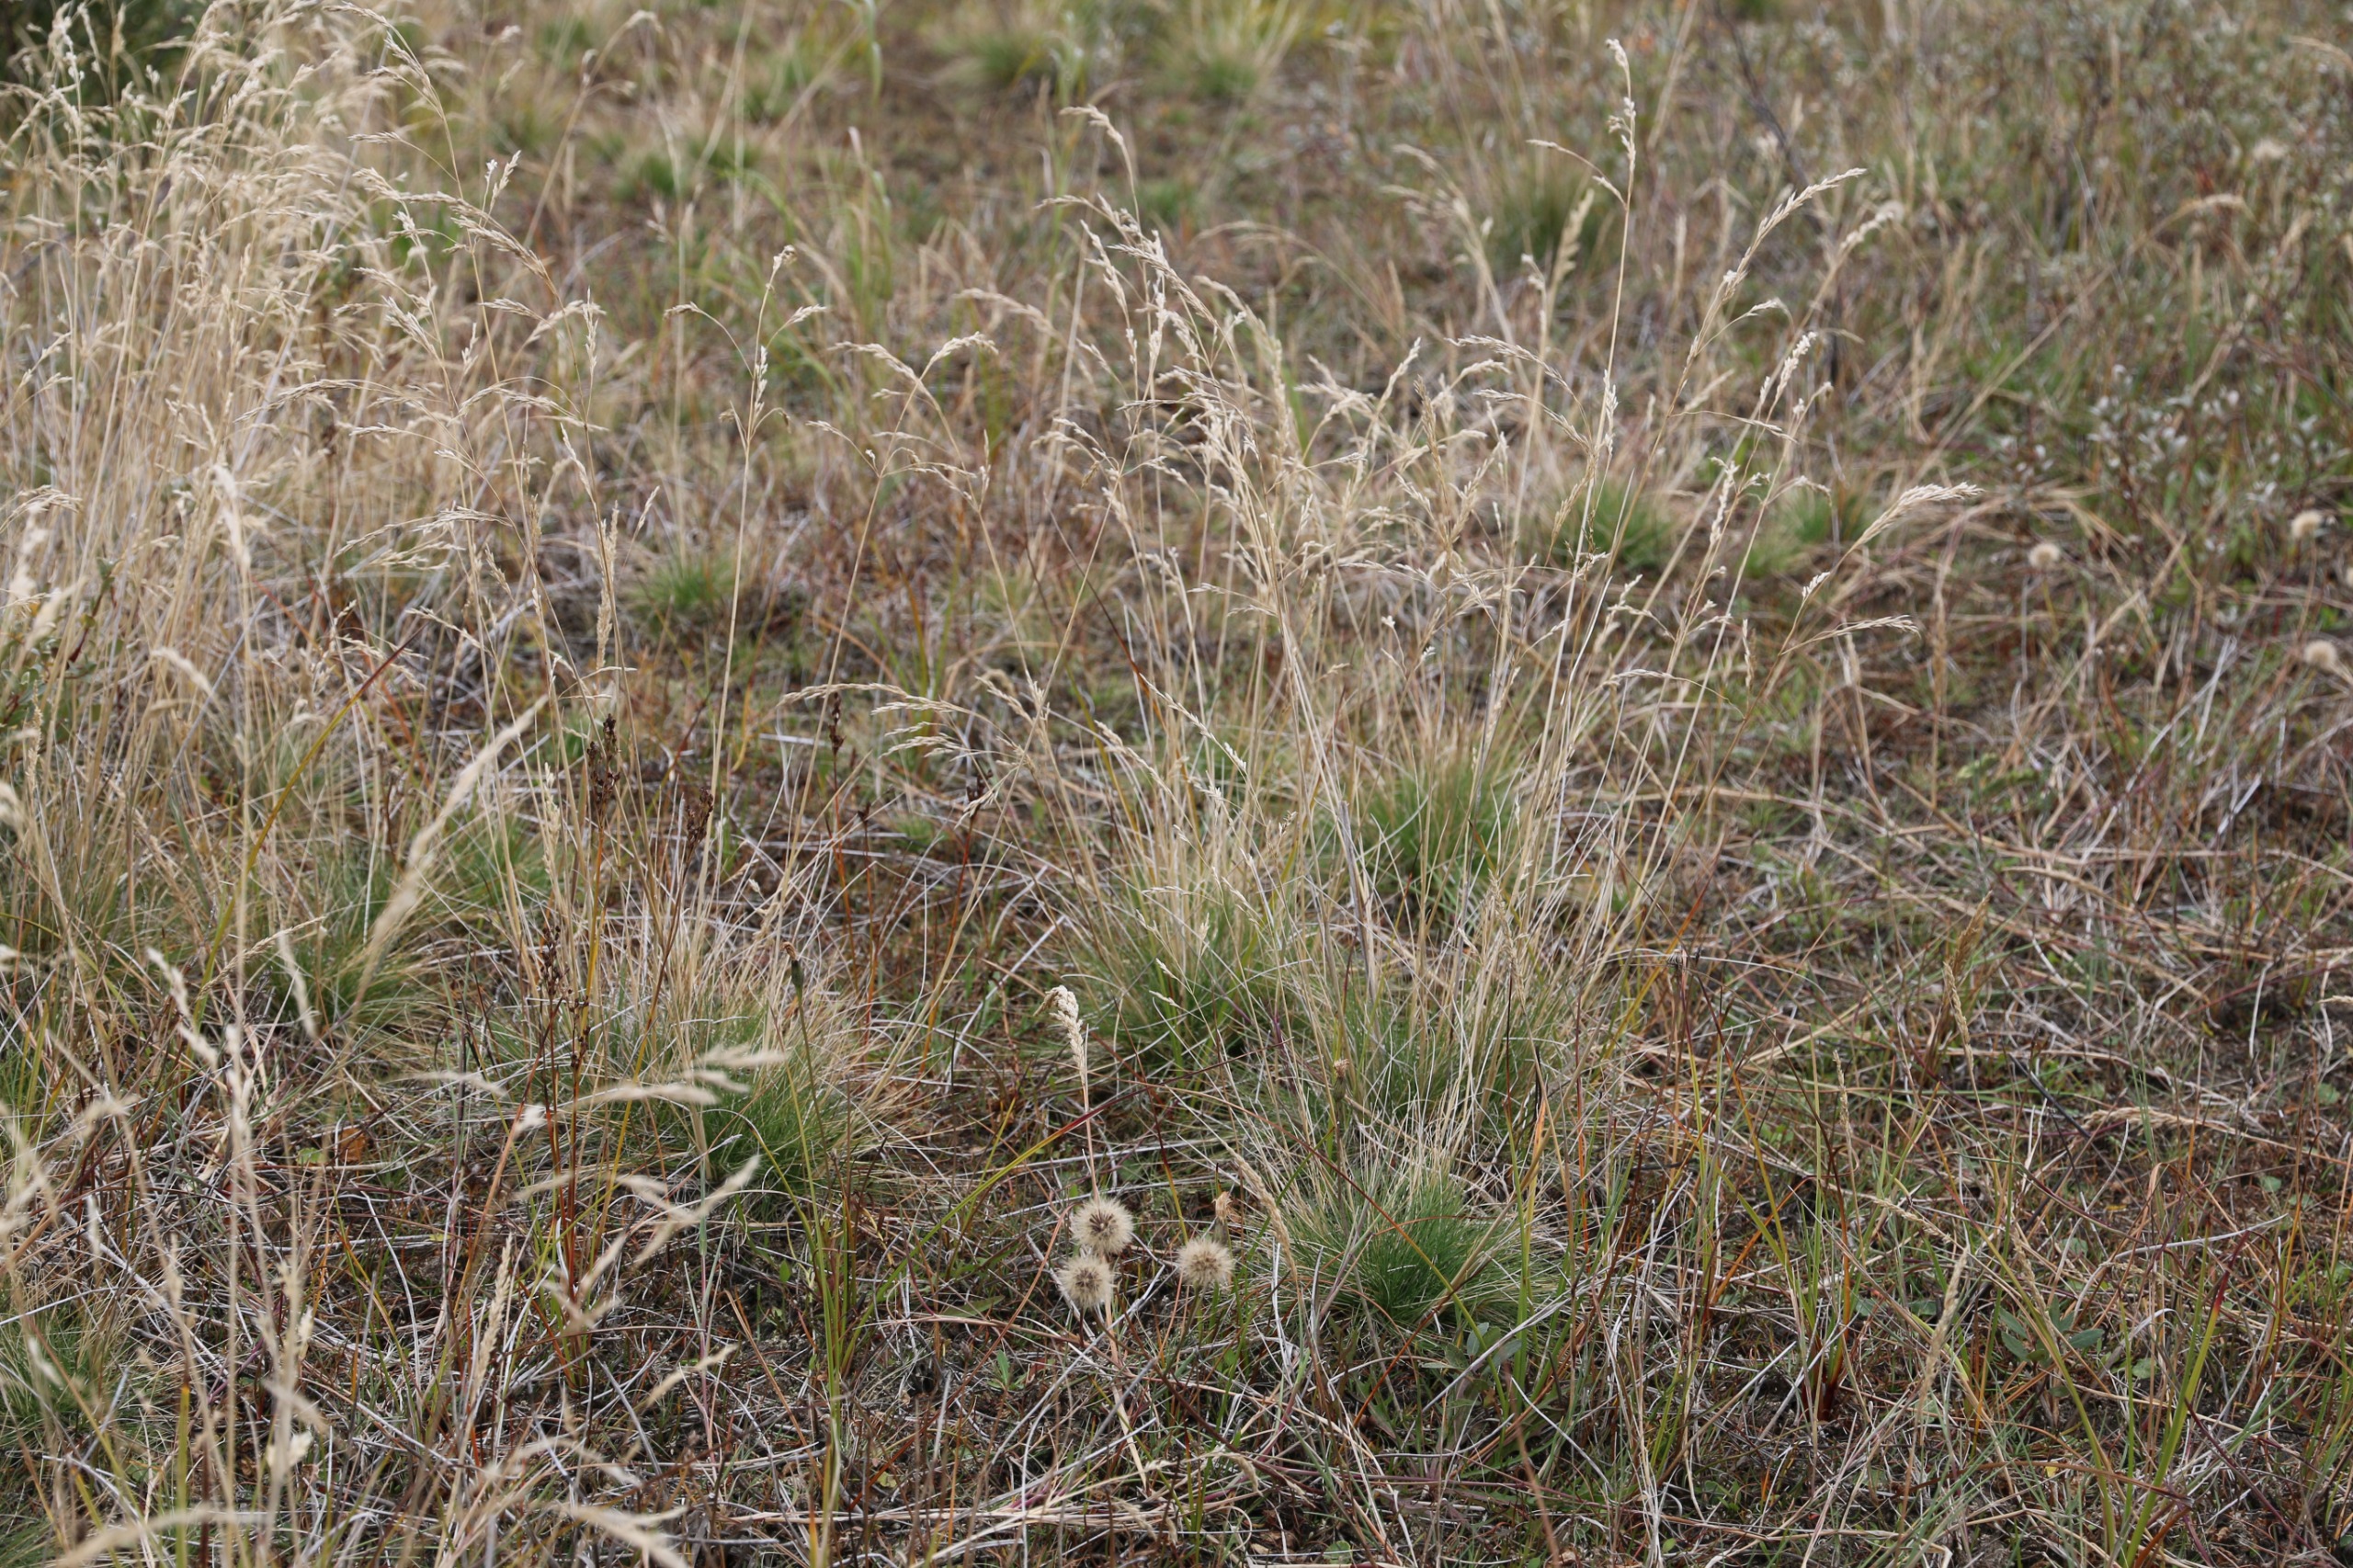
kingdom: Plantae
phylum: Tracheophyta
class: Liliopsida
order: Poales
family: Poaceae
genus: Deschampsia
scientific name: Deschampsia setacea
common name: Fin bunke
